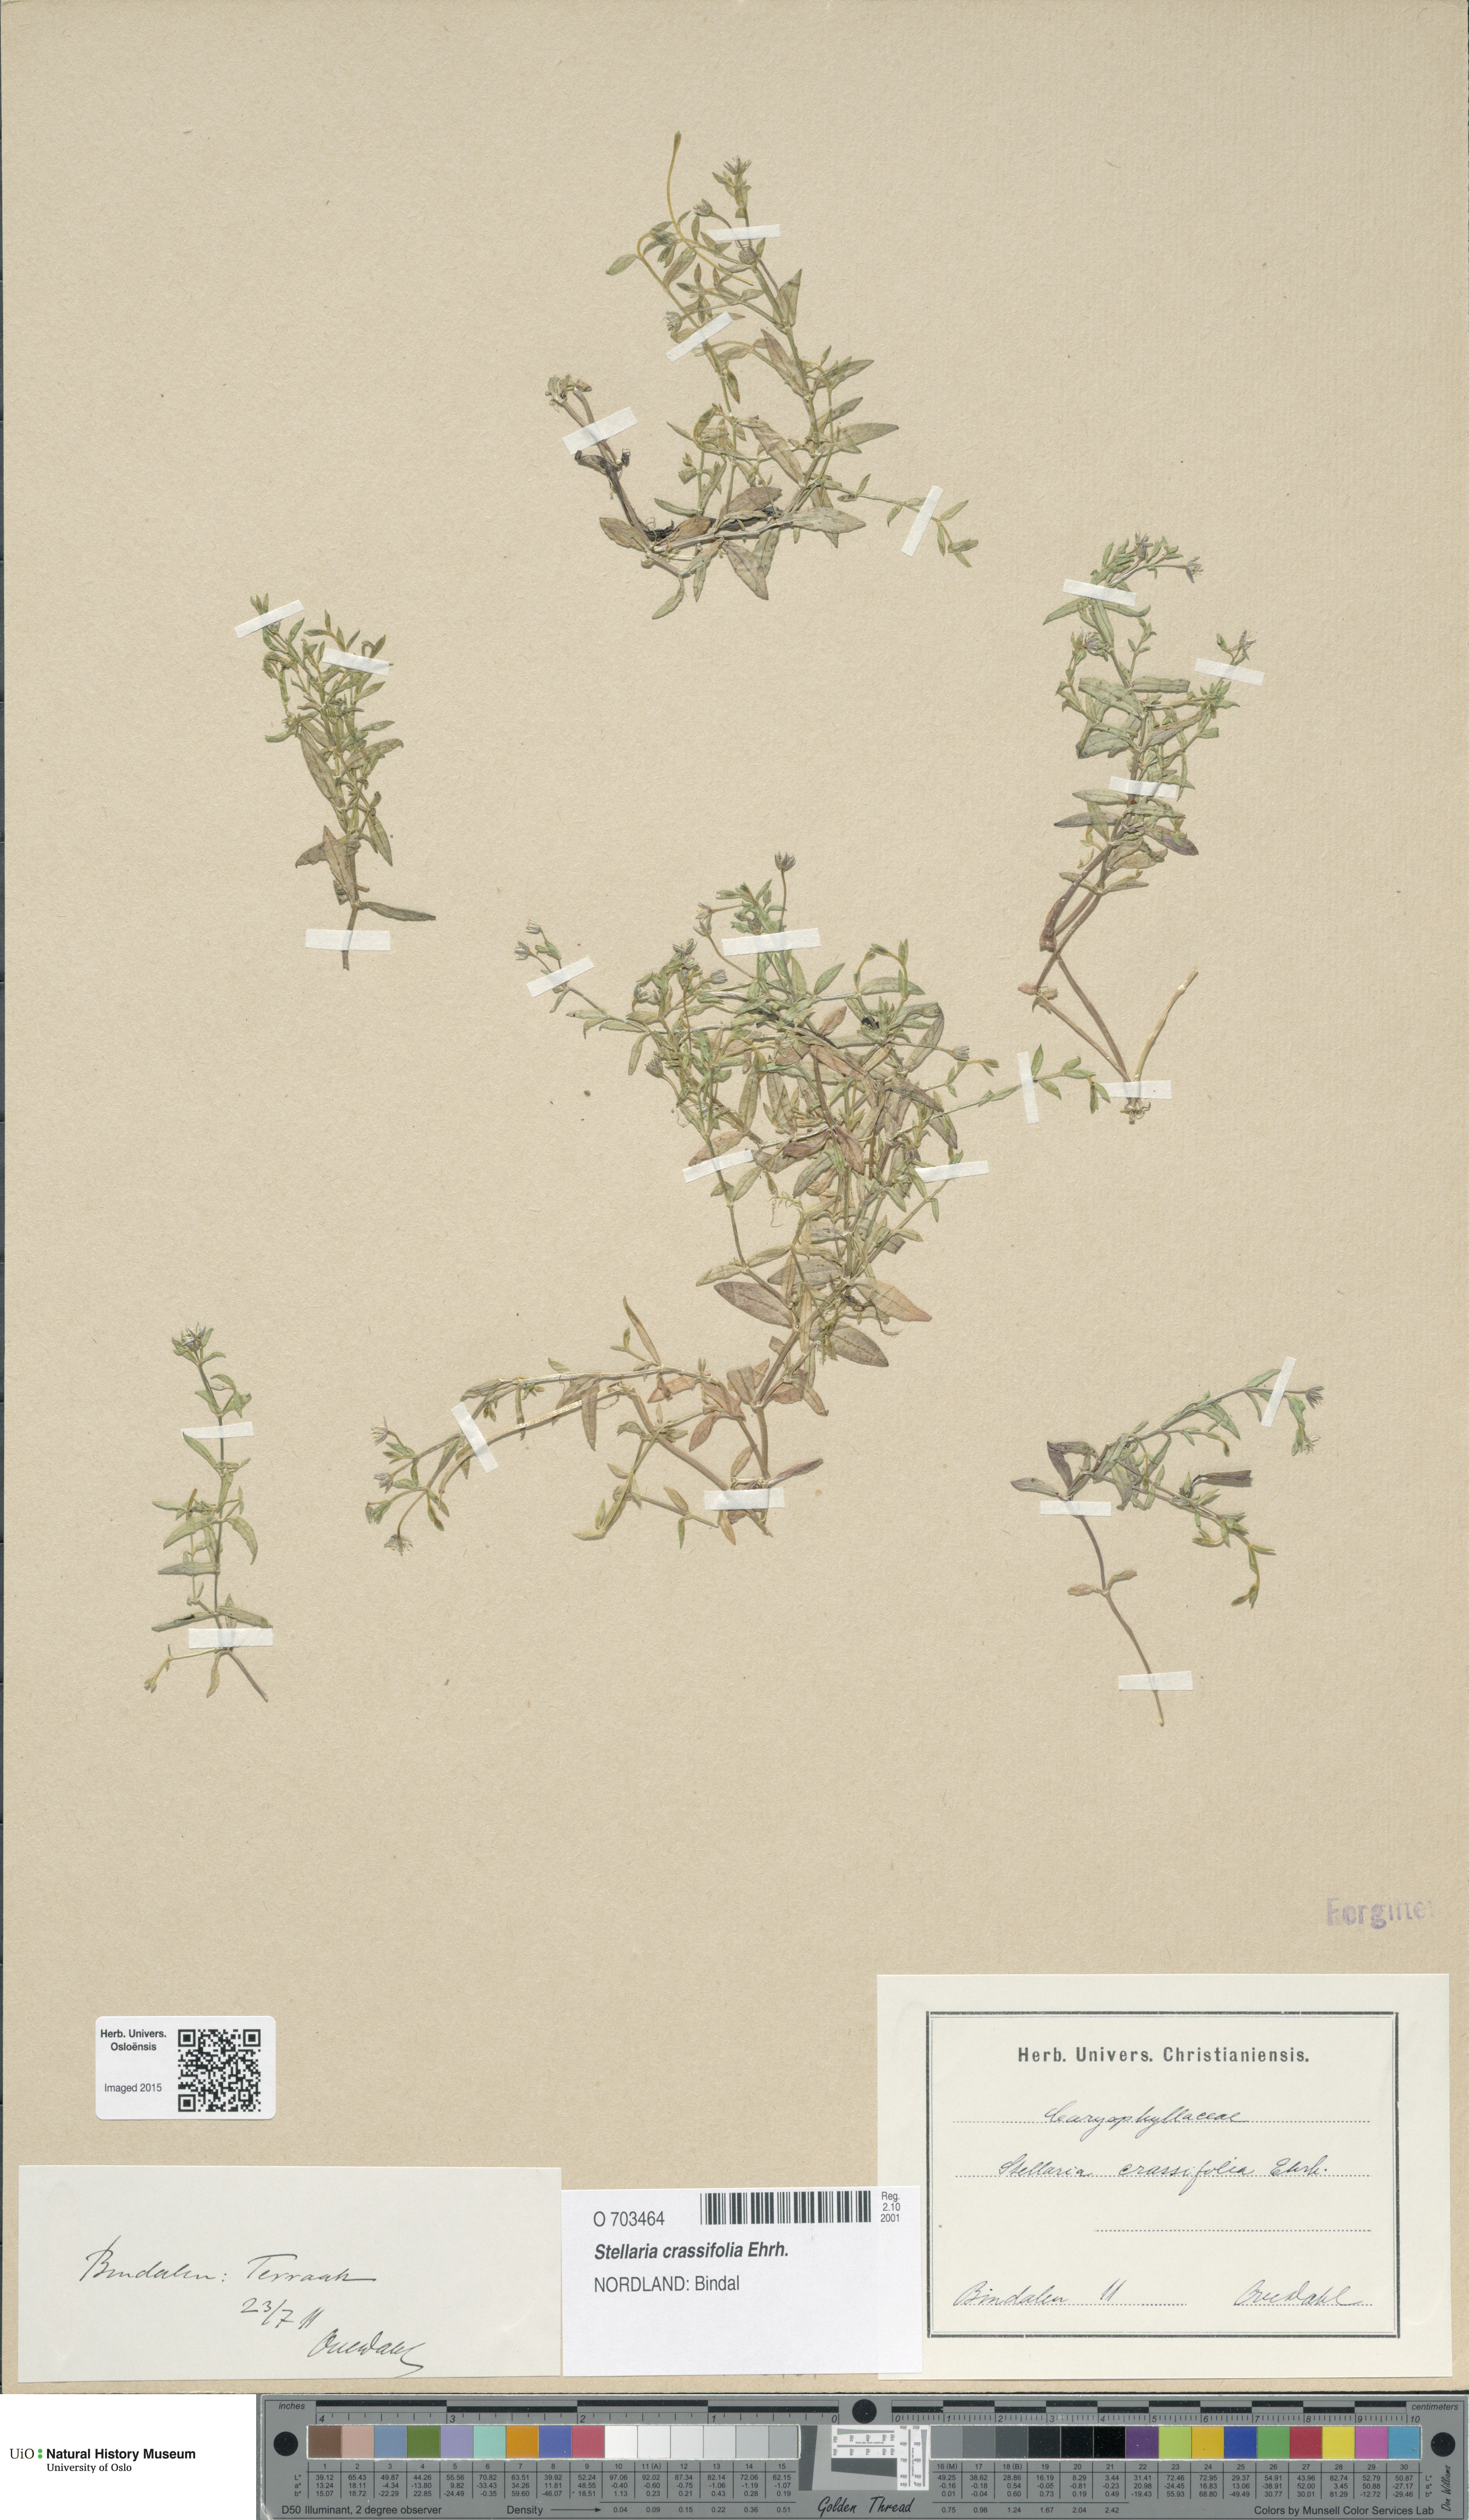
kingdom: Plantae
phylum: Tracheophyta
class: Magnoliopsida
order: Caryophyllales
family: Caryophyllaceae
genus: Stellaria
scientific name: Stellaria crassifolia
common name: Fleshy starwort
